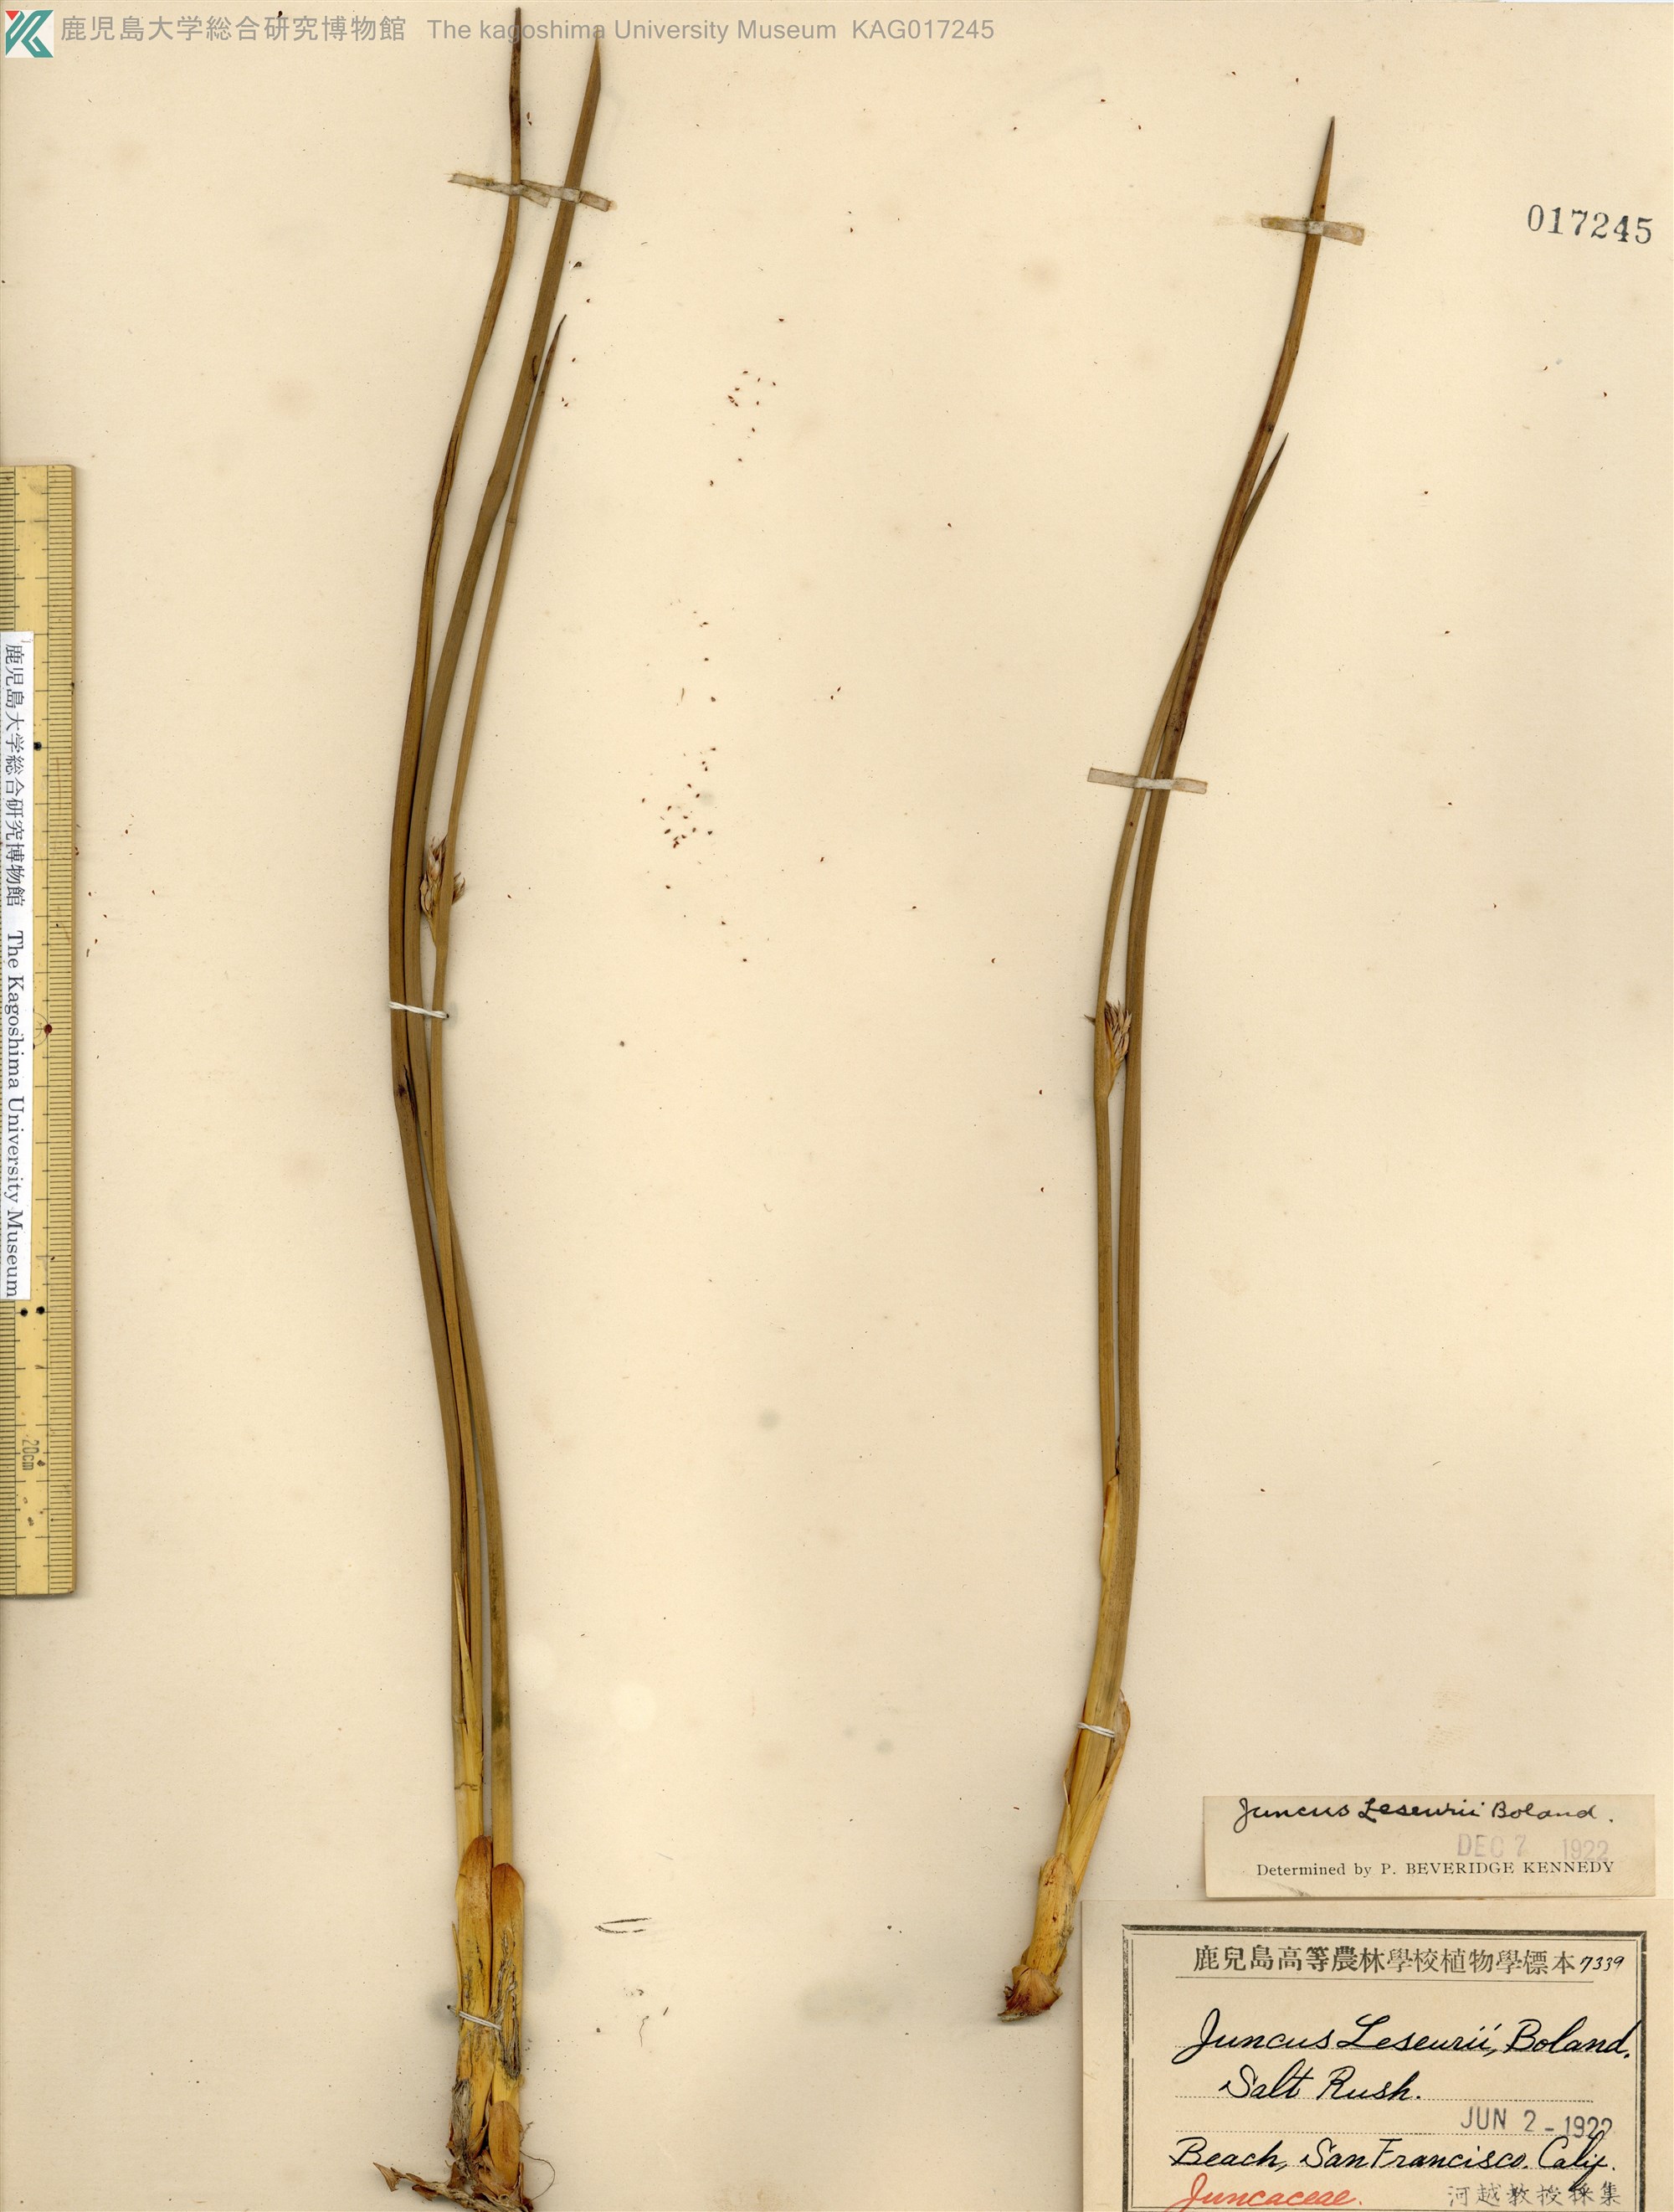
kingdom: Plantae
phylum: Tracheophyta
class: Liliopsida
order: Poales
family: Juncaceae
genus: Juncus
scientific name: Juncus leseurii
